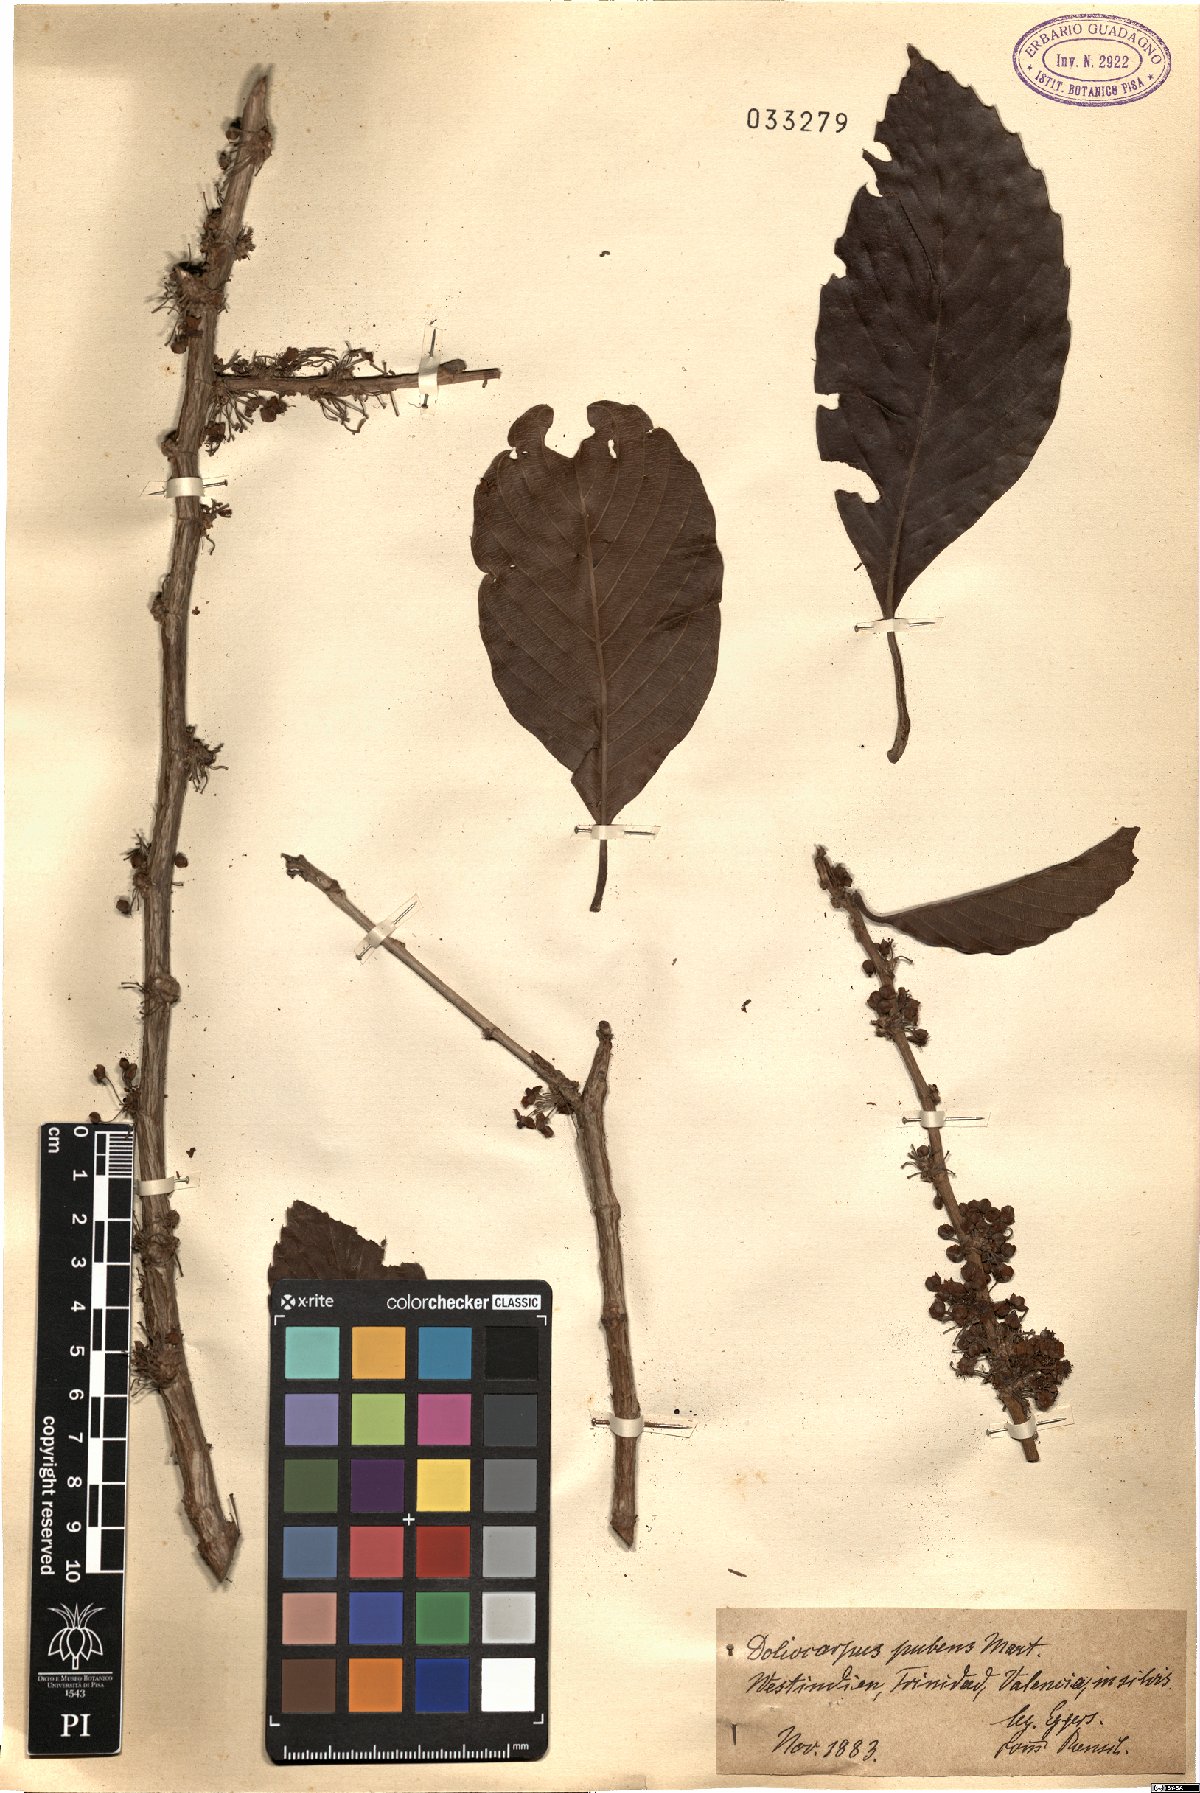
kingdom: Plantae
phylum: Tracheophyta
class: Magnoliopsida
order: Dilleniales
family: Dilleniaceae
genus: Doliocarpus
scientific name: Doliocarpus dentatus
